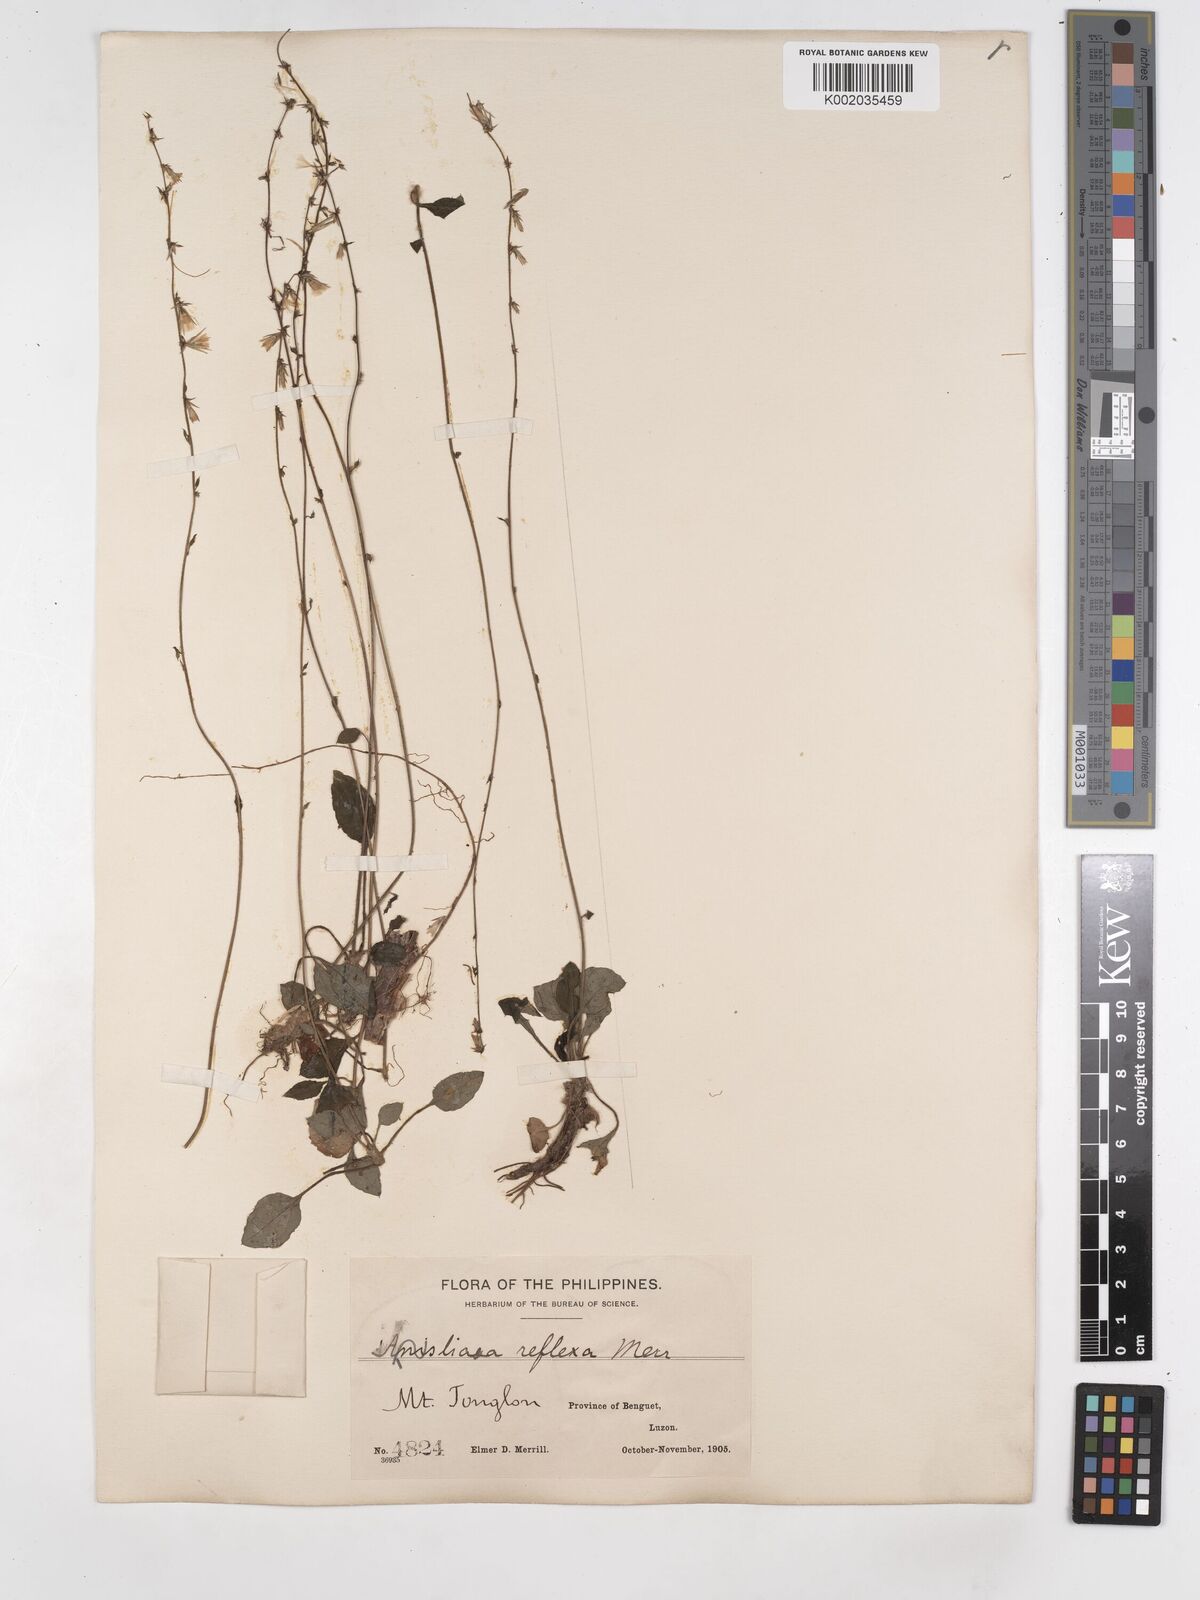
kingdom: Plantae
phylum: Tracheophyta
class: Magnoliopsida
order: Asterales
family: Asteraceae
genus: Ainsliaea
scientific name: Ainsliaea reflexa
